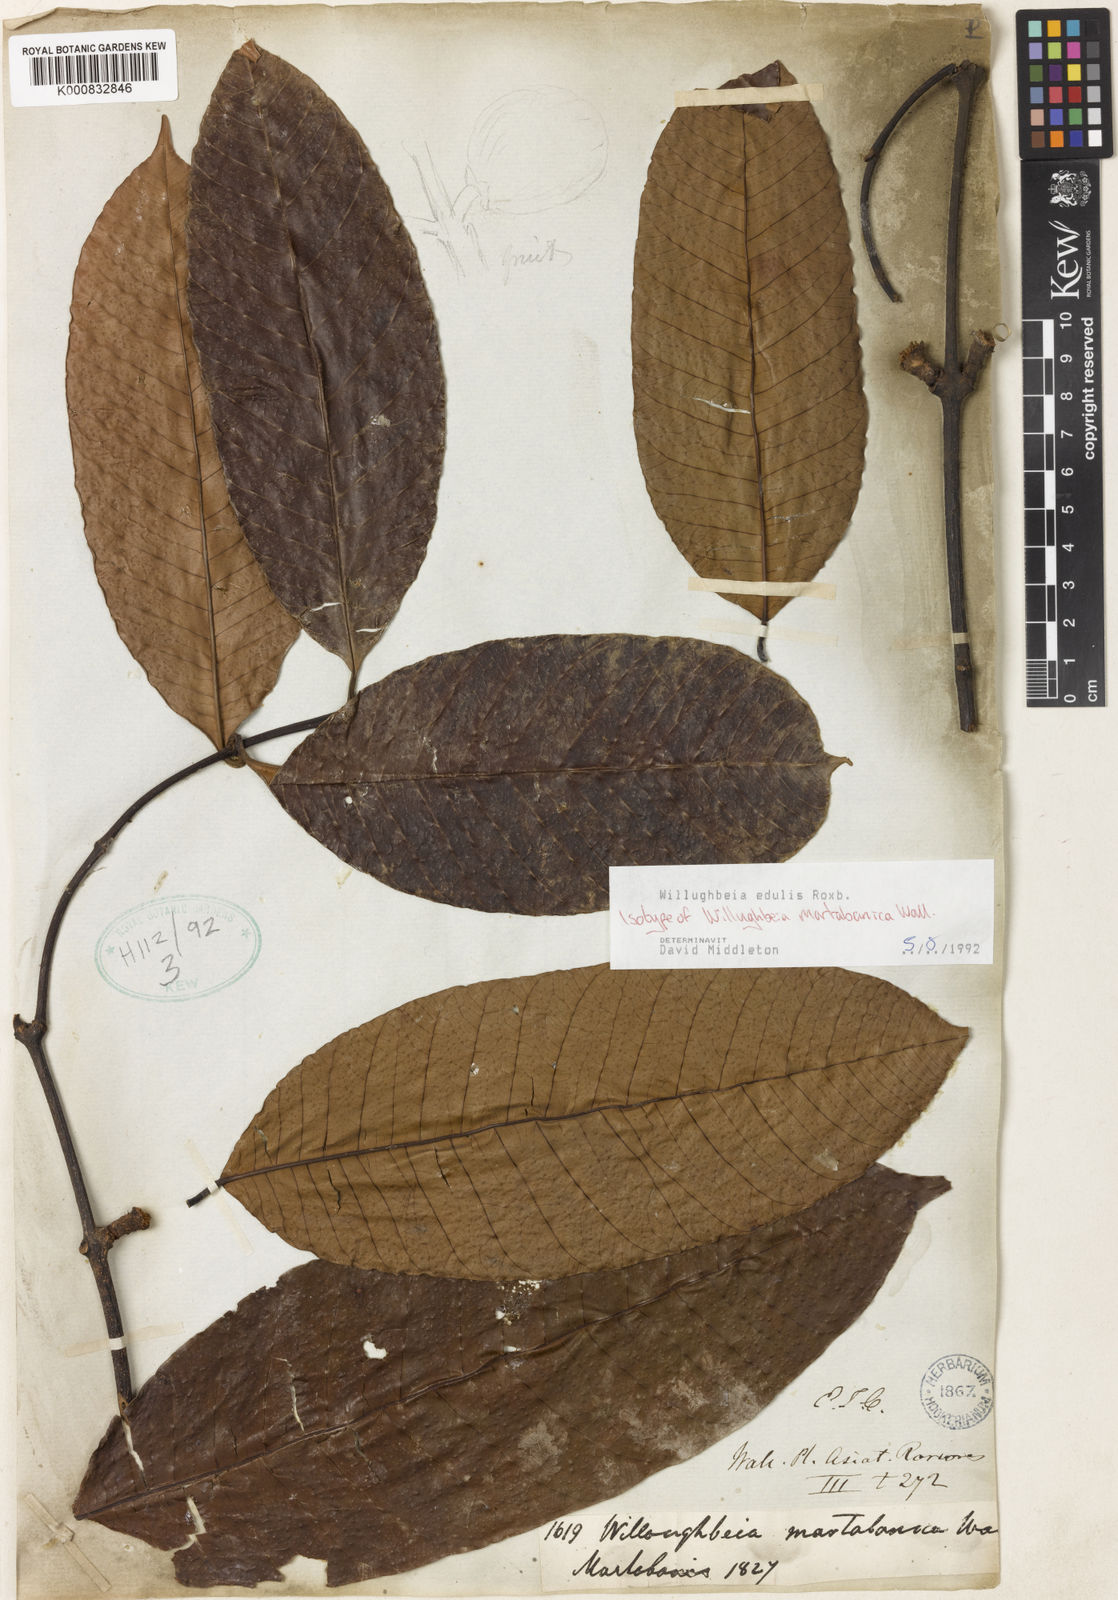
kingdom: Plantae
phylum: Tracheophyta
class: Magnoliopsida
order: Gentianales
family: Apocynaceae
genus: Willughbeia
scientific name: Willughbeia edulis
